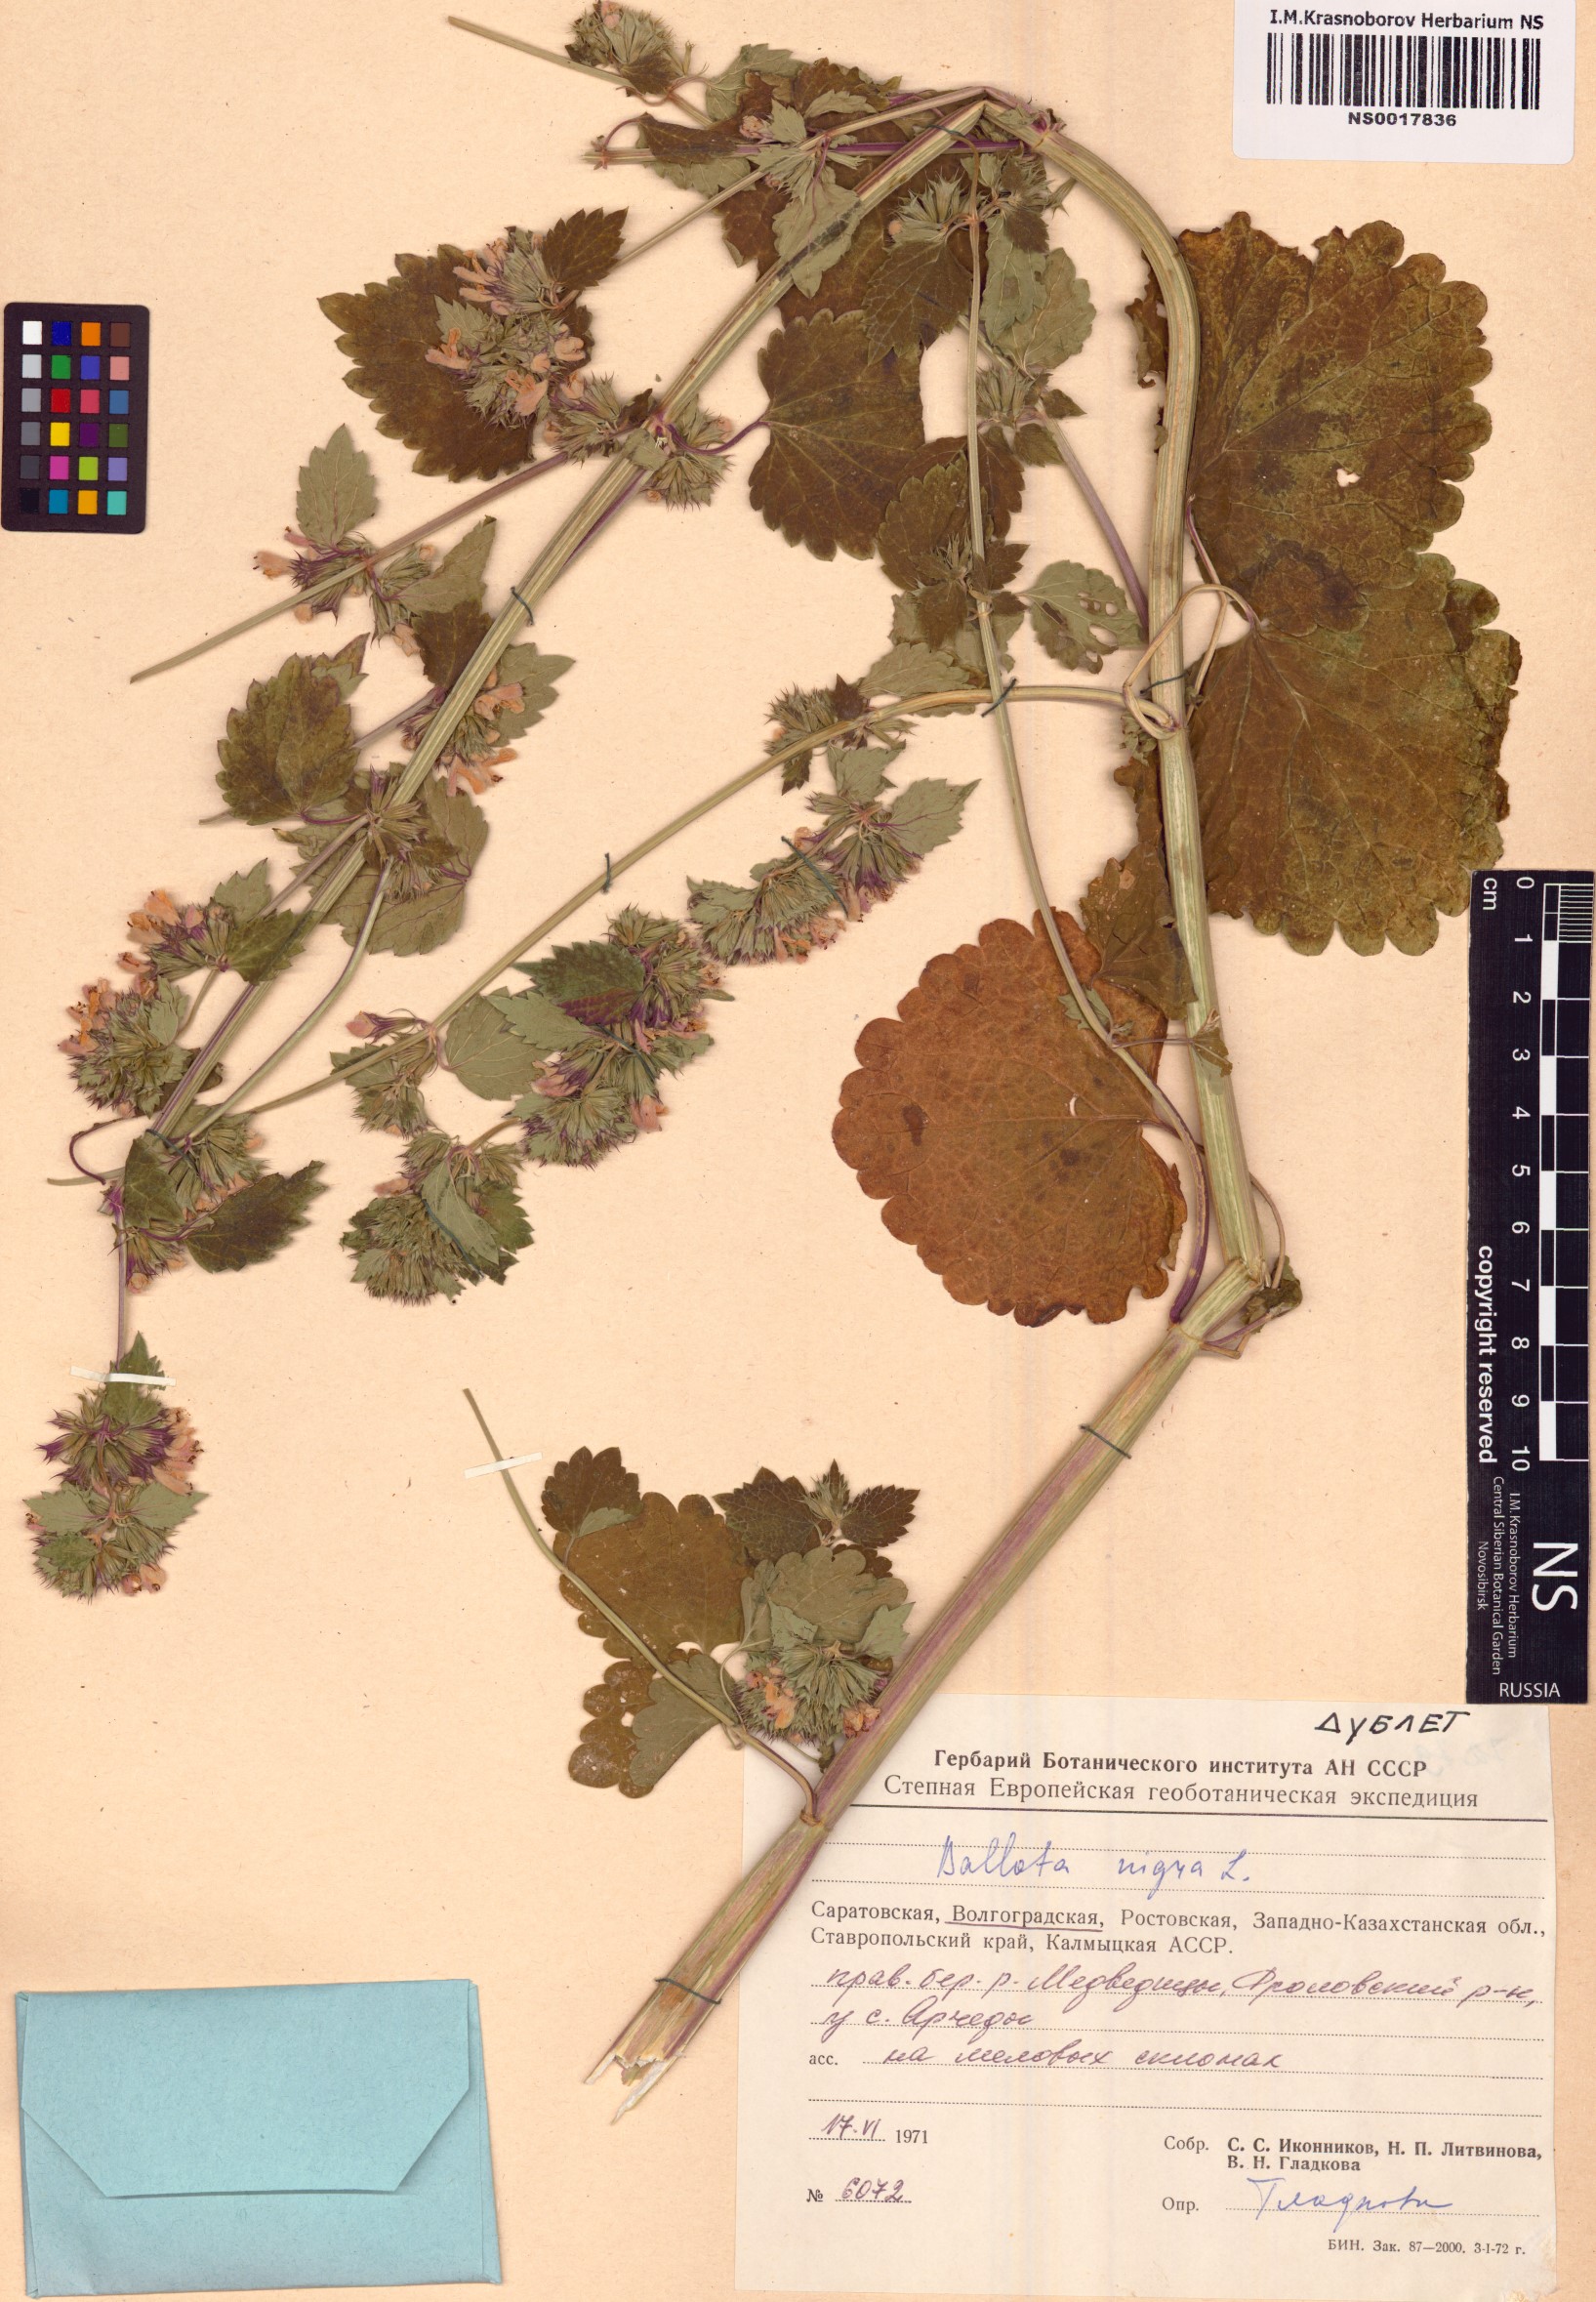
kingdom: Plantae
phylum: Tracheophyta
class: Magnoliopsida
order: Lamiales
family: Lamiaceae
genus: Ballota
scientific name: Ballota nigra
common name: Black horehound
